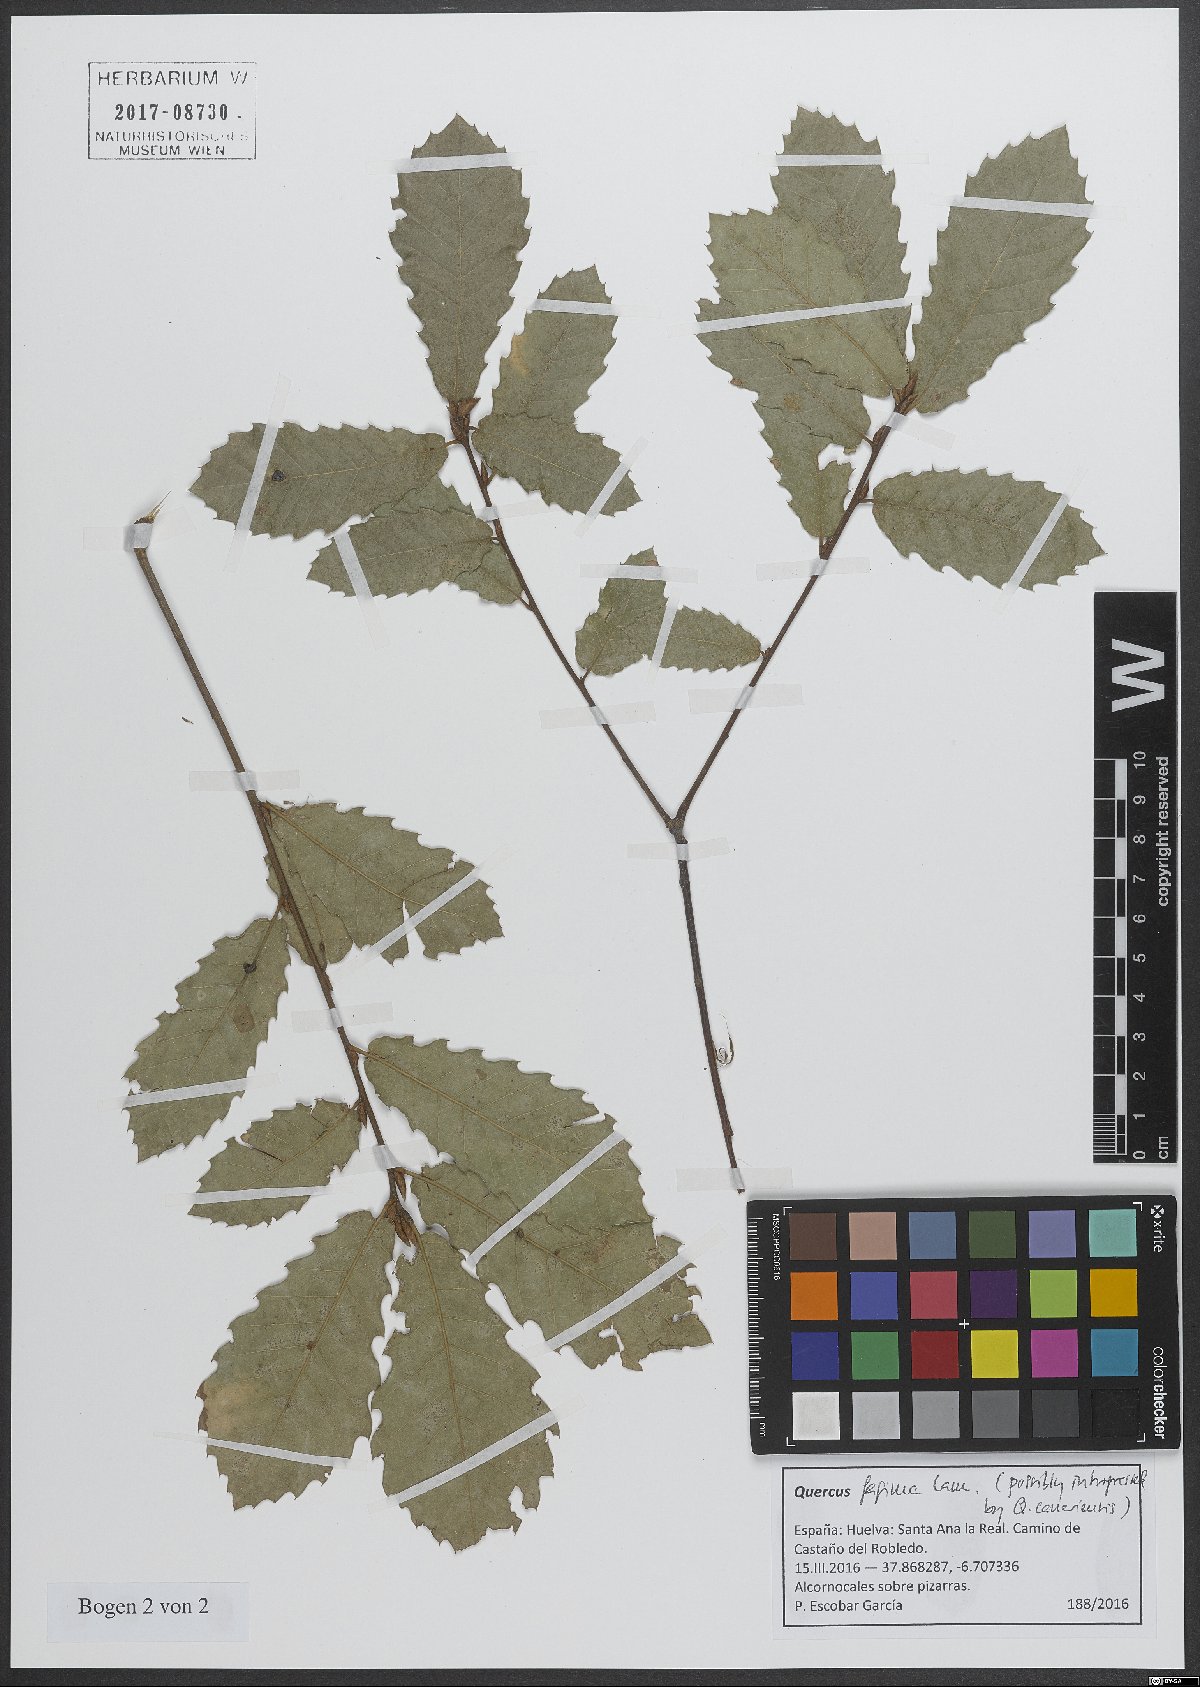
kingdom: Plantae
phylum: Tracheophyta
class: Magnoliopsida
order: Fagales
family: Fagaceae
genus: Quercus
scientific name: Quercus faginea
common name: Gall oak tree
